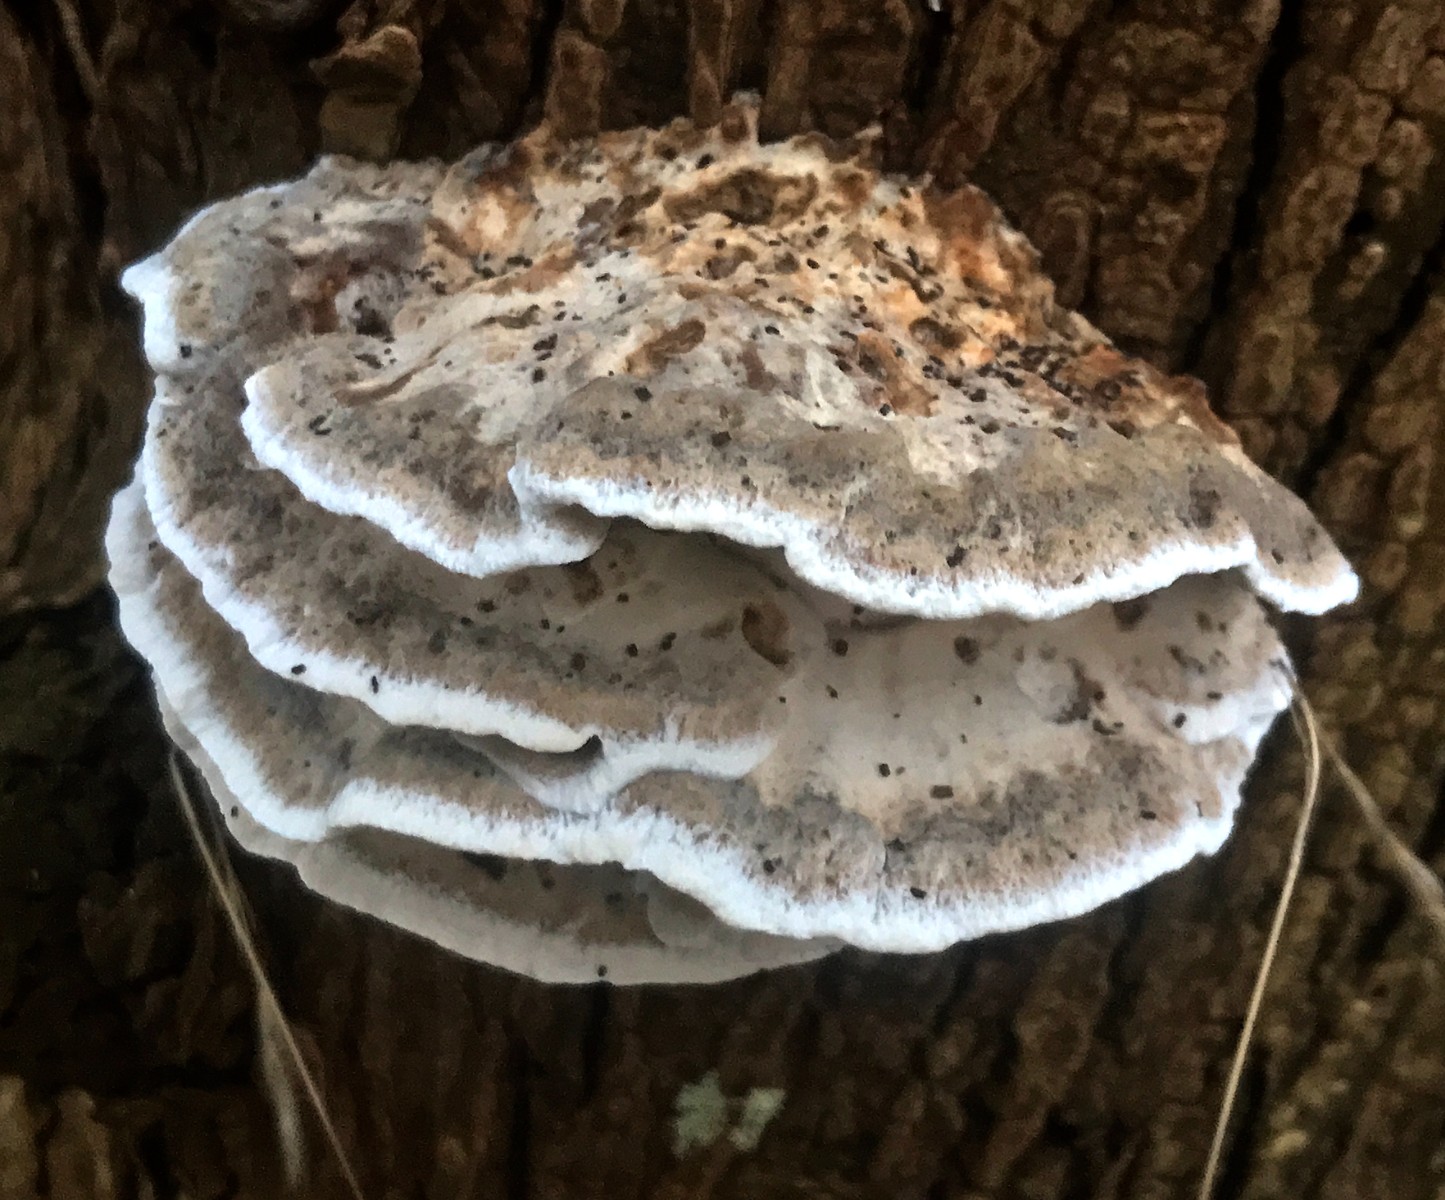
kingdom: Fungi
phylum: Basidiomycota
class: Agaricomycetes
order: Polyporales
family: Phanerochaetaceae
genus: Bjerkandera
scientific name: Bjerkandera fumosa
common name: grågul sodporesvamp
